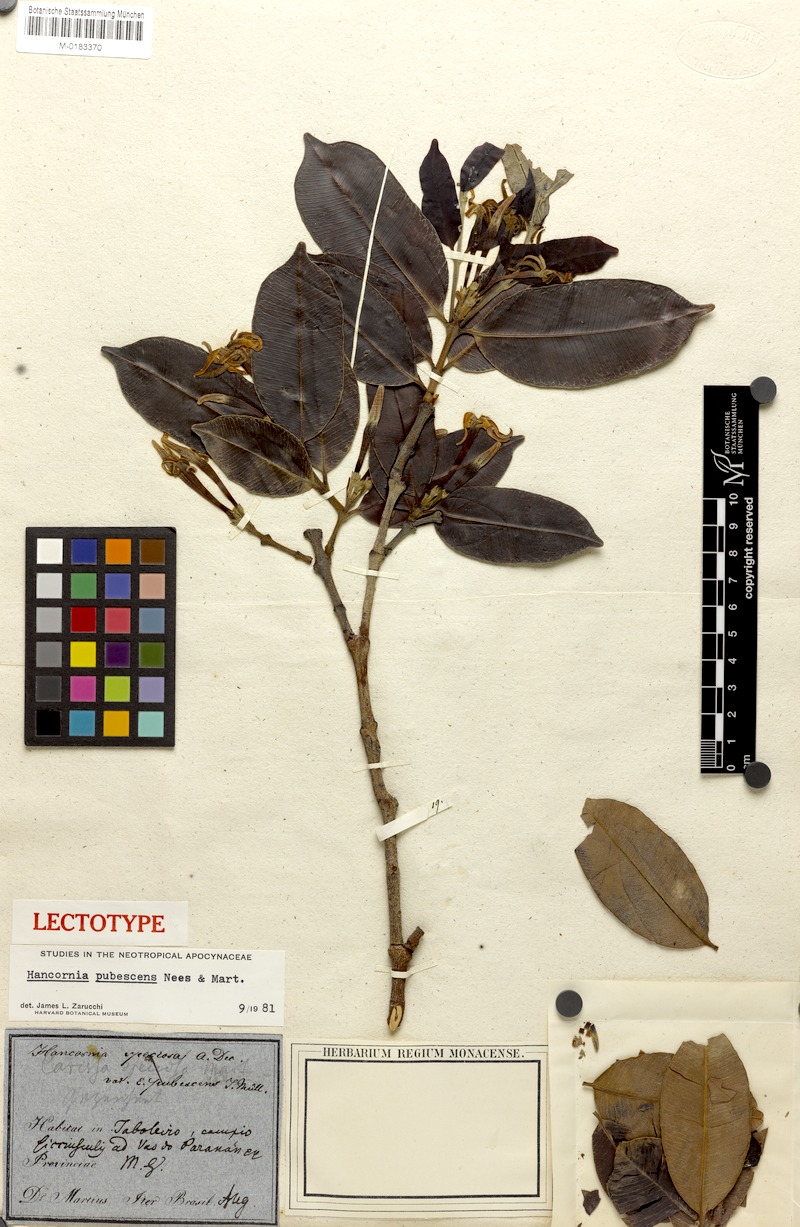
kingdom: Plantae
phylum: Tracheophyta
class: Magnoliopsida
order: Gentianales
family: Apocynaceae
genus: Hancornia
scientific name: Hancornia speciosa
